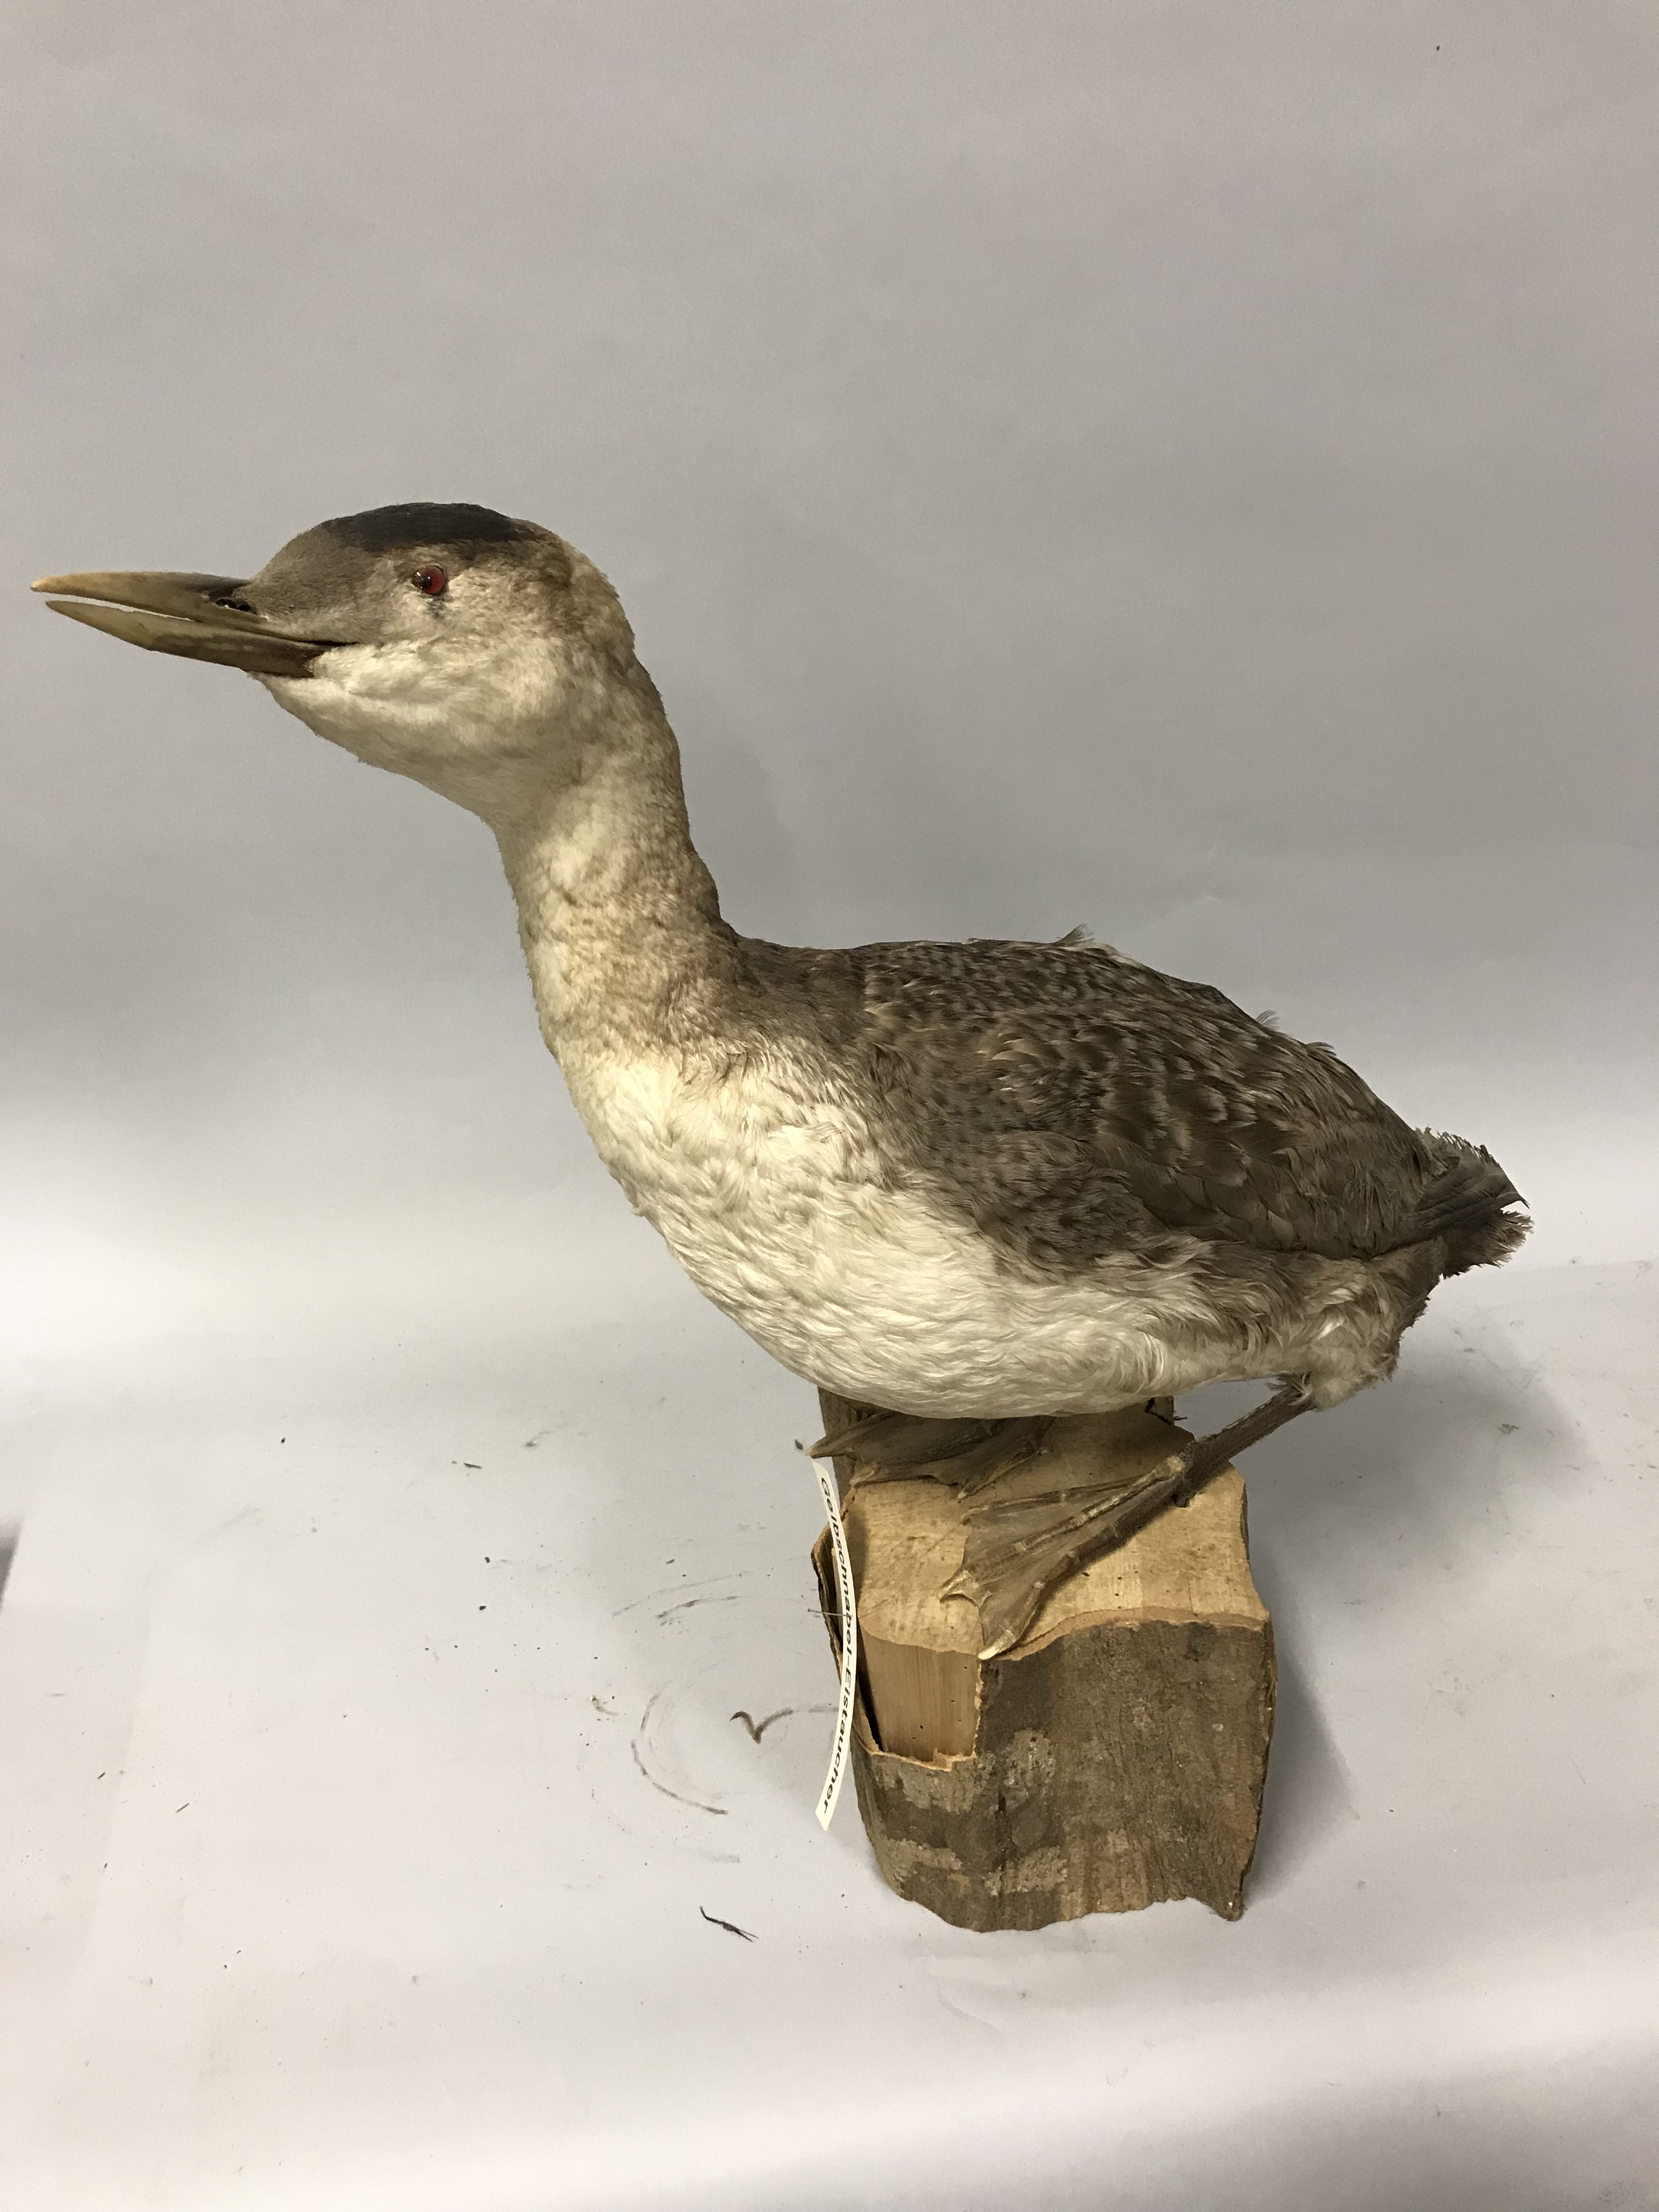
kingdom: Animalia
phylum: Chordata
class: Aves
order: Gaviiformes
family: Gaviidae
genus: Gavia
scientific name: Gavia adamsii
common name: Yellow-billed loon
